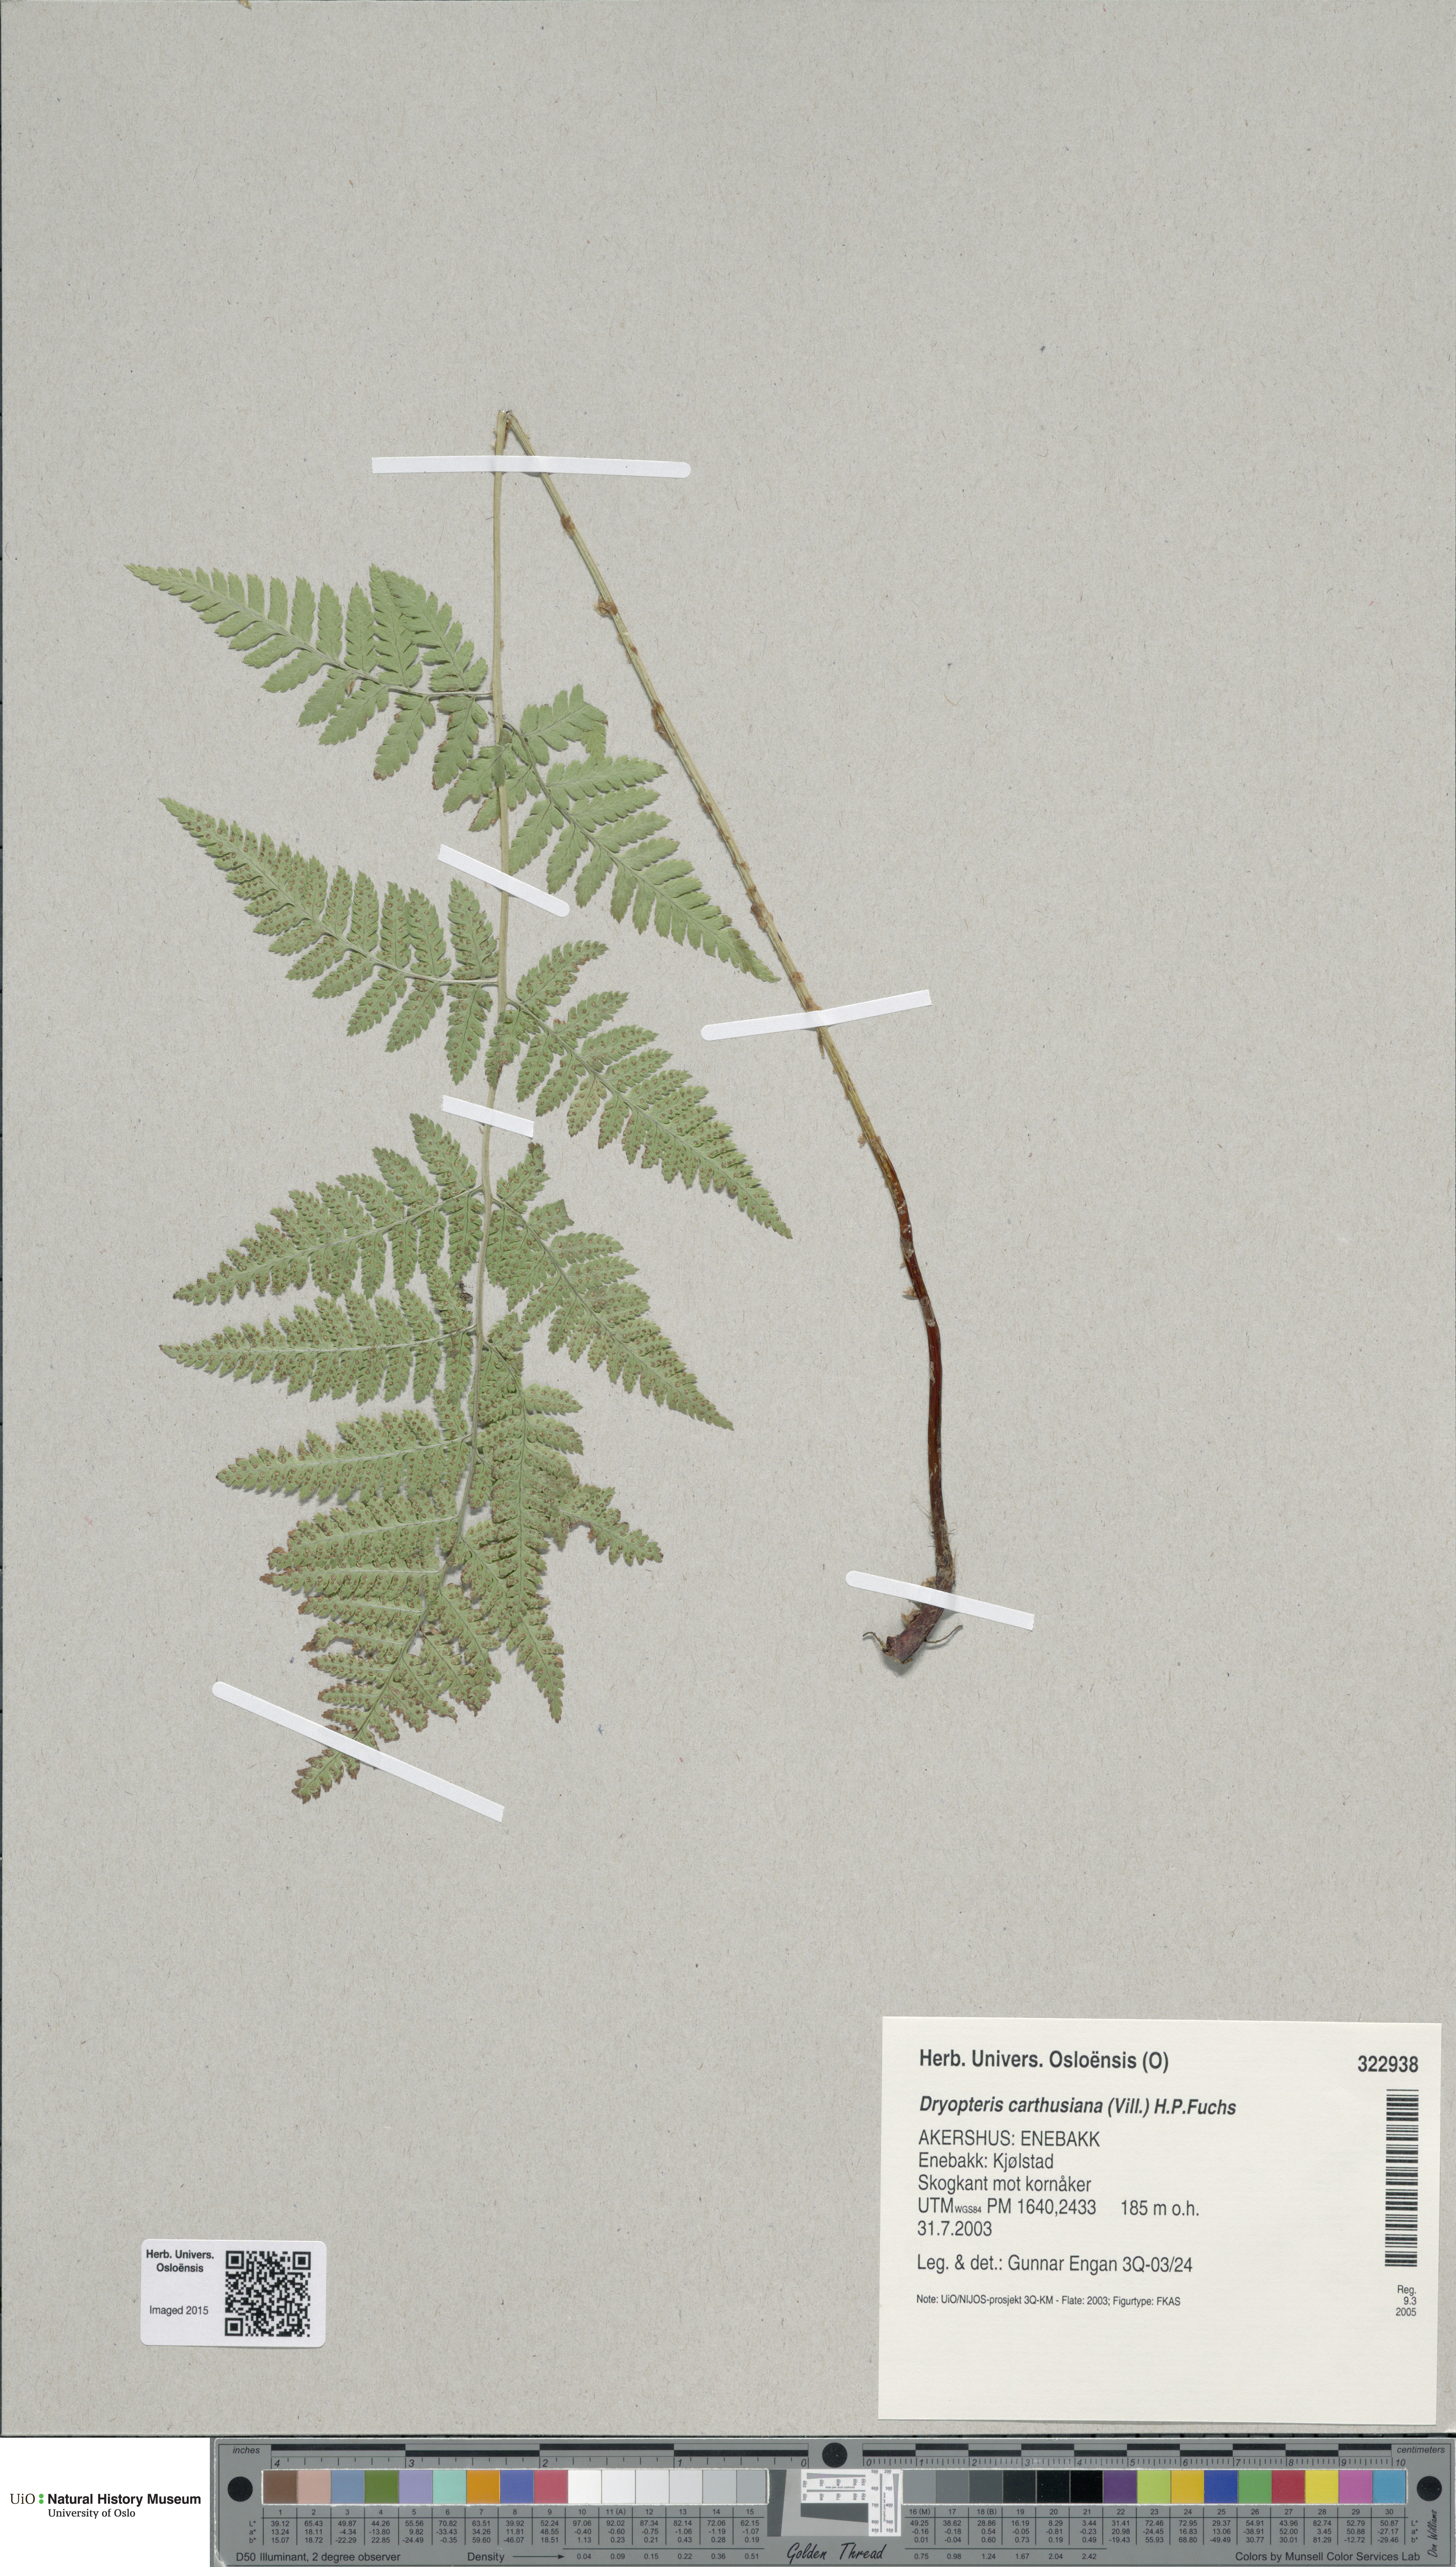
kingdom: Plantae
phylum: Tracheophyta
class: Polypodiopsida
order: Polypodiales
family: Dryopteridaceae
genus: Dryopteris
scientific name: Dryopteris carthusiana
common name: Narrow buckler-fern
